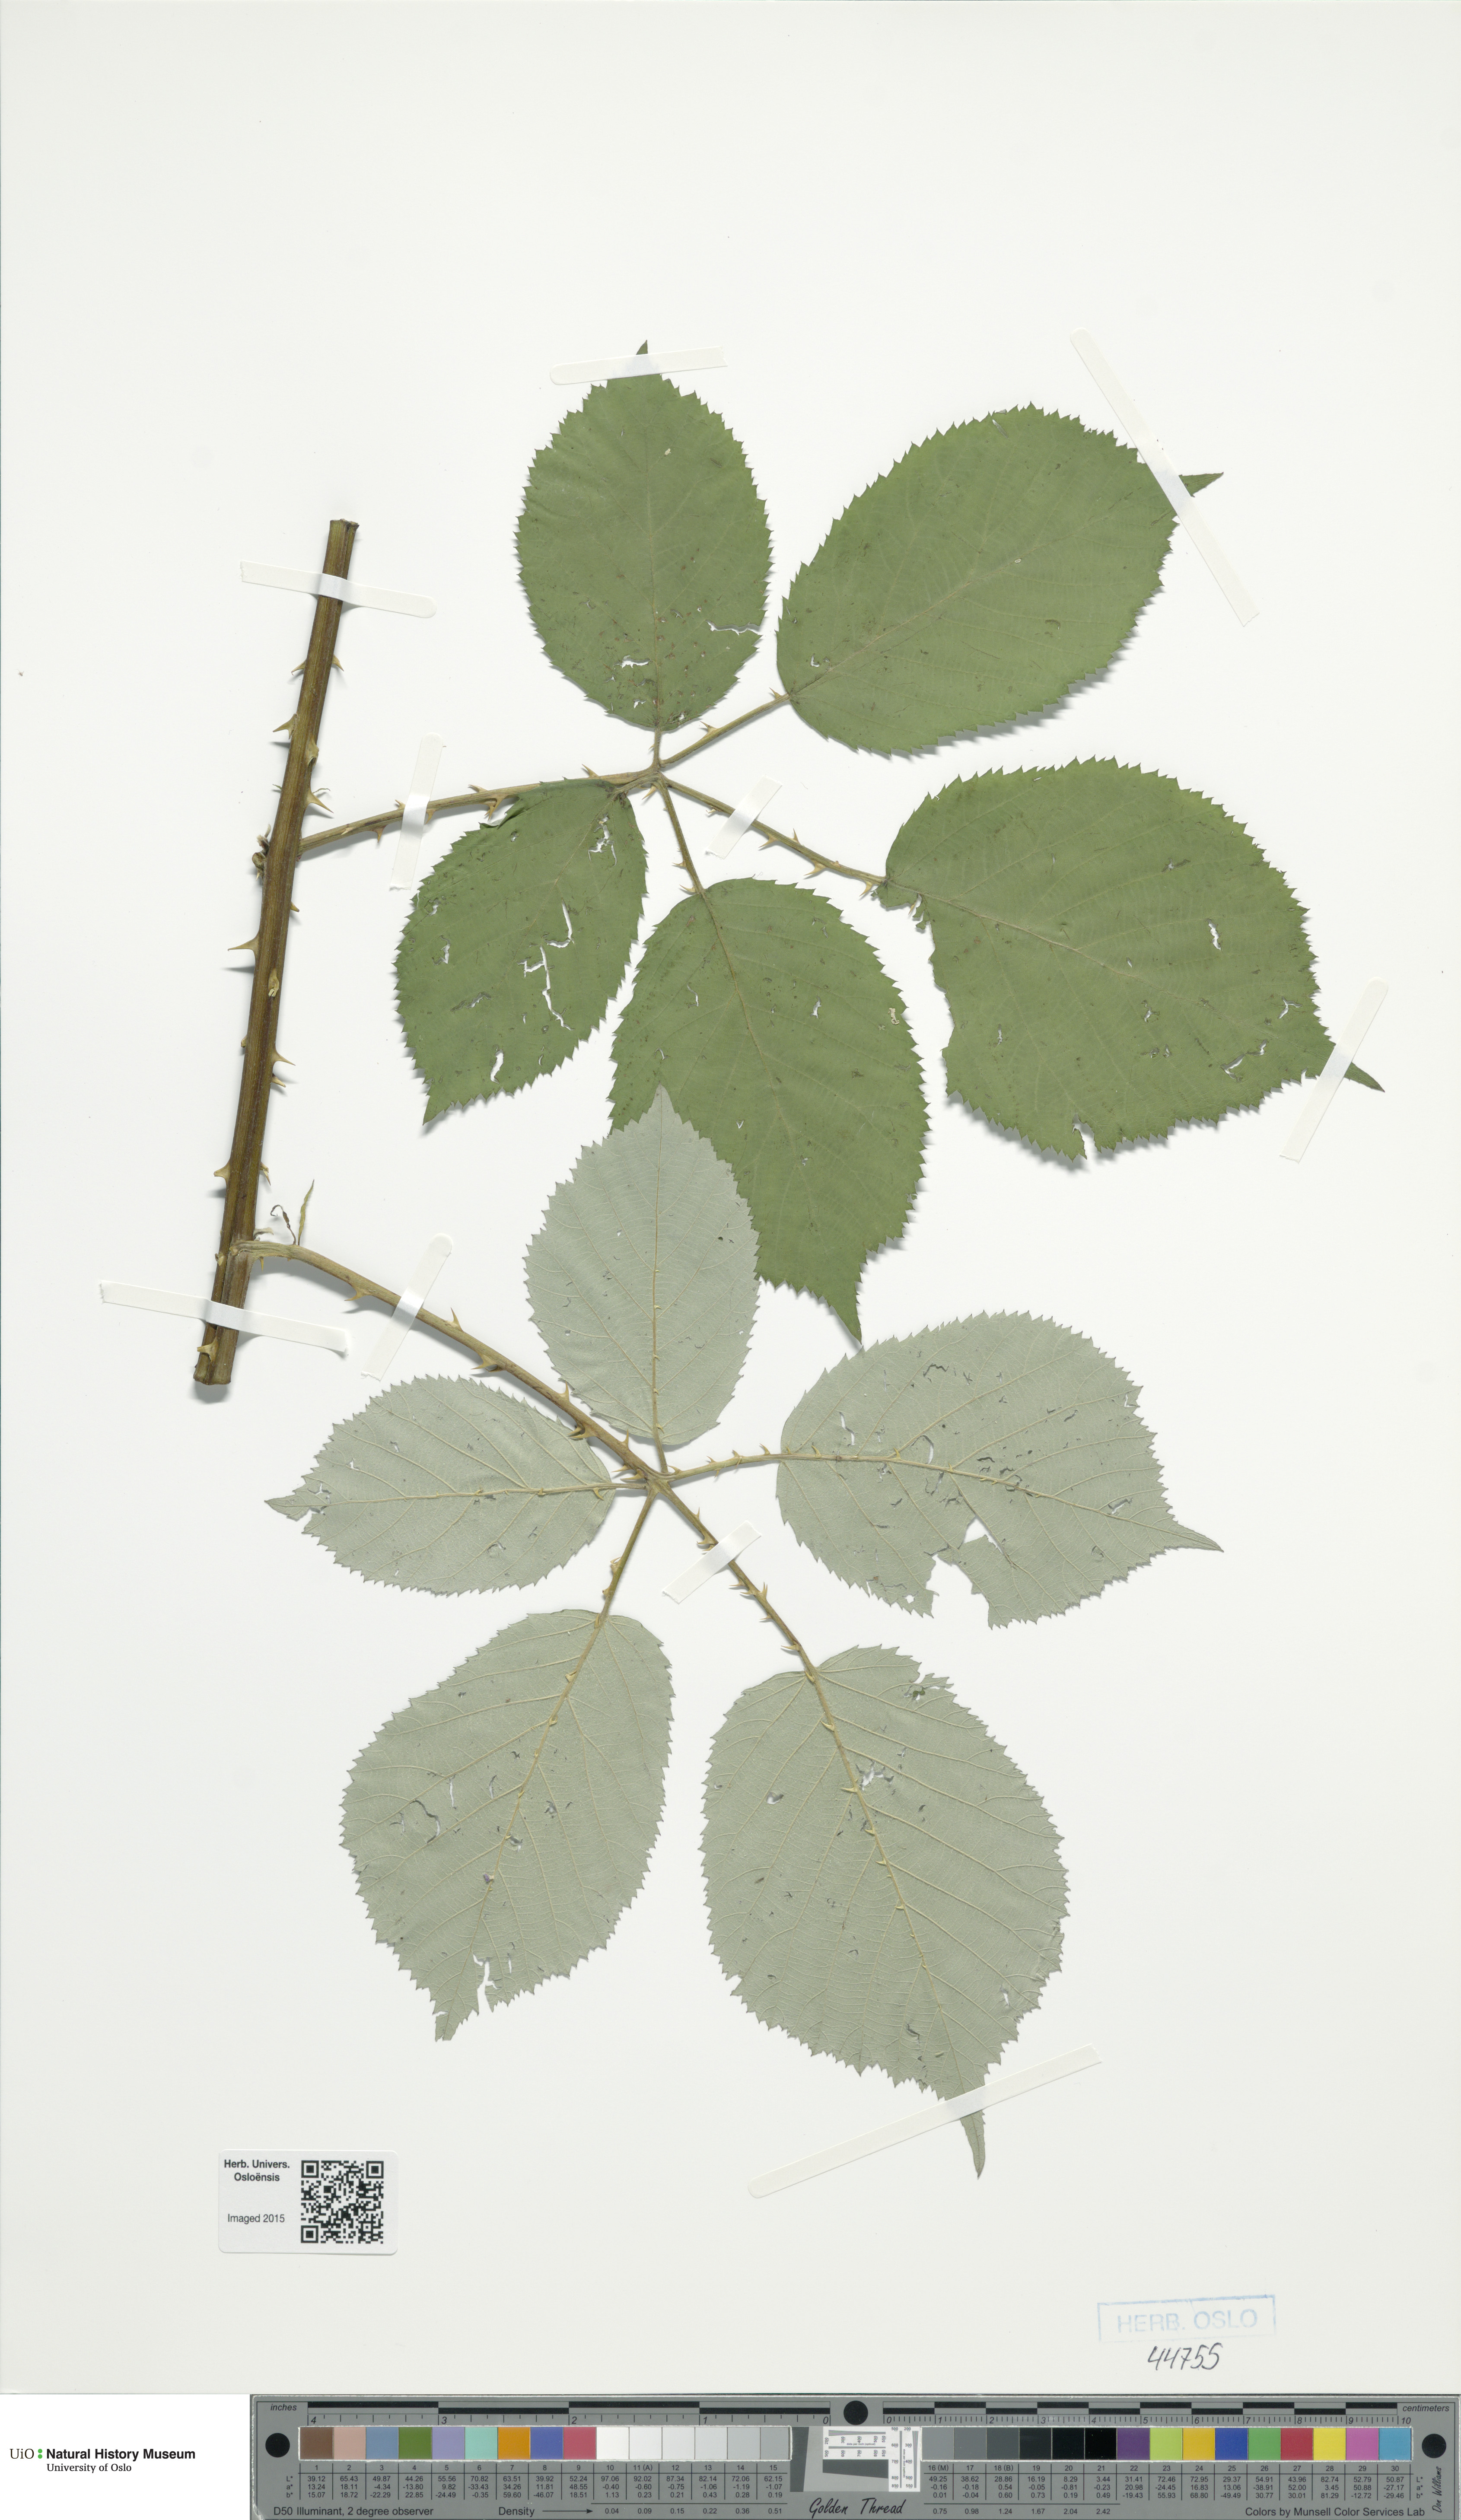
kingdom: Plantae
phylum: Tracheophyta
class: Magnoliopsida
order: Rosales
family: Rosaceae
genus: Rubus
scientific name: Rubus armeniacus
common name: Himalayan blackberry
